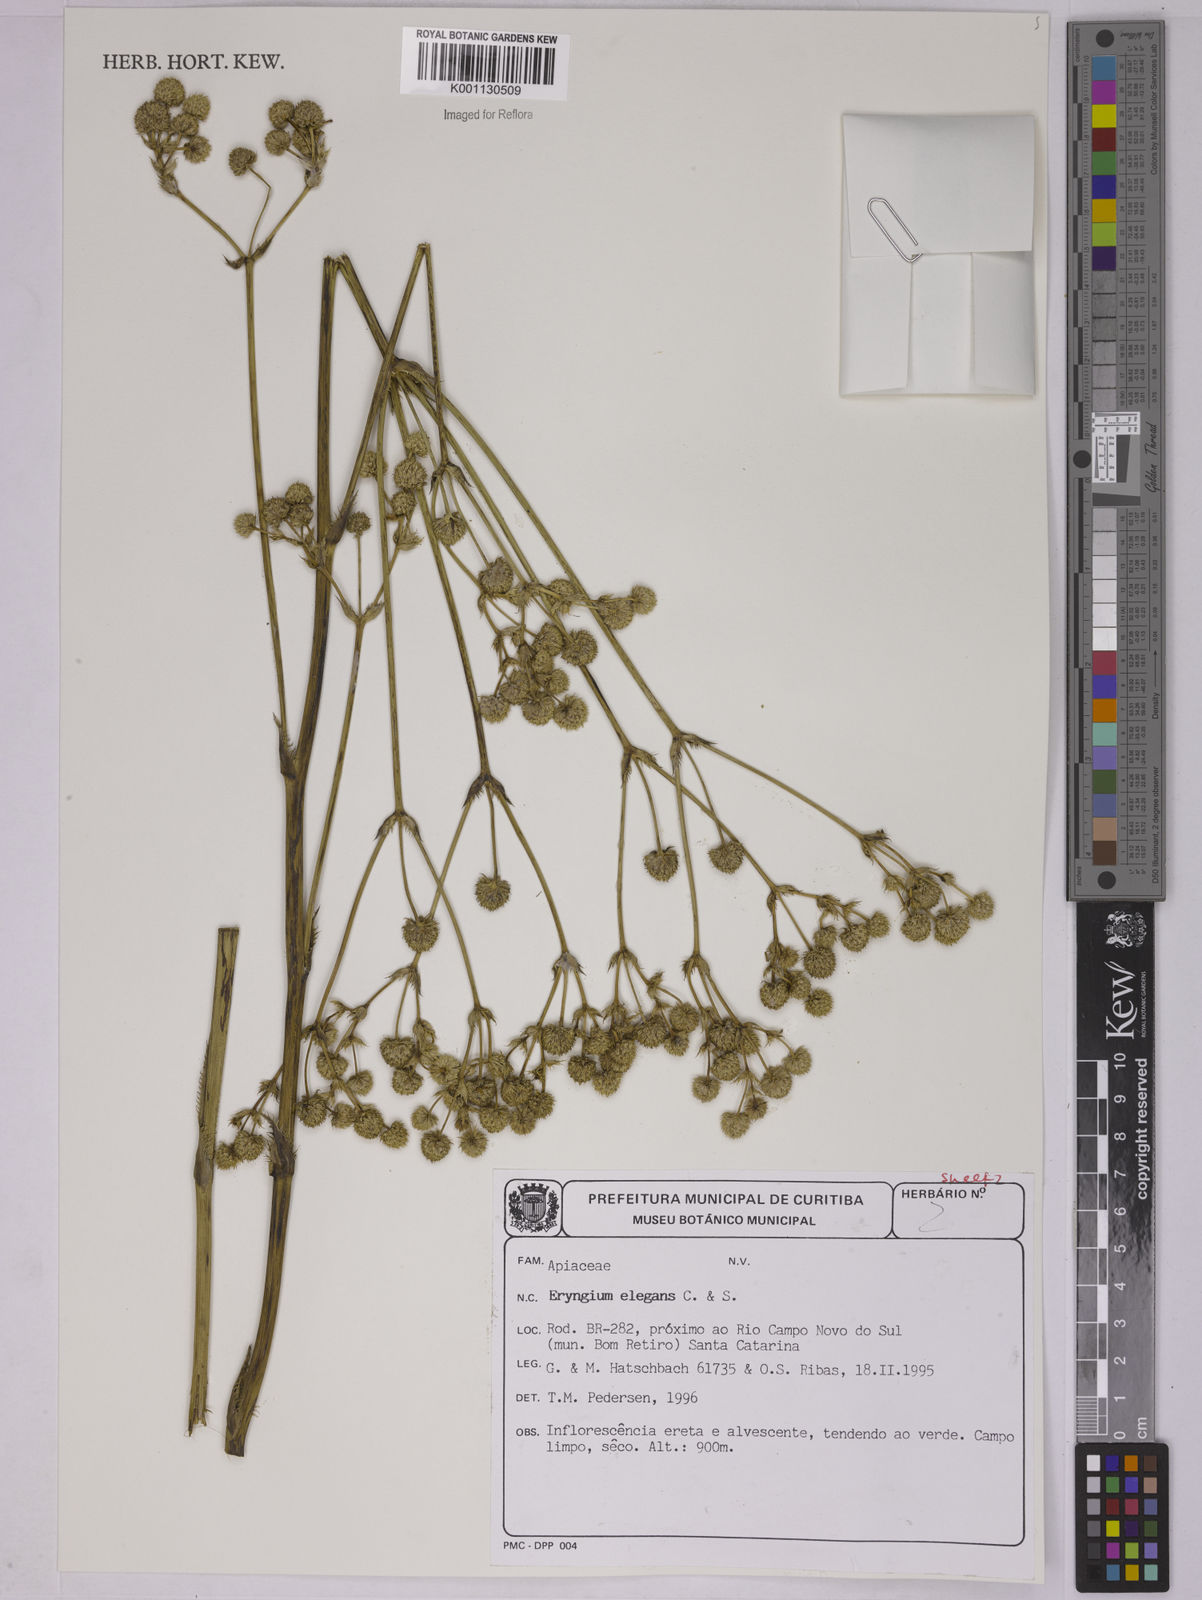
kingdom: Plantae
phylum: Tracheophyta
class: Magnoliopsida
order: Apiales
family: Apiaceae
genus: Eryngium
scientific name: Eryngium elegans
